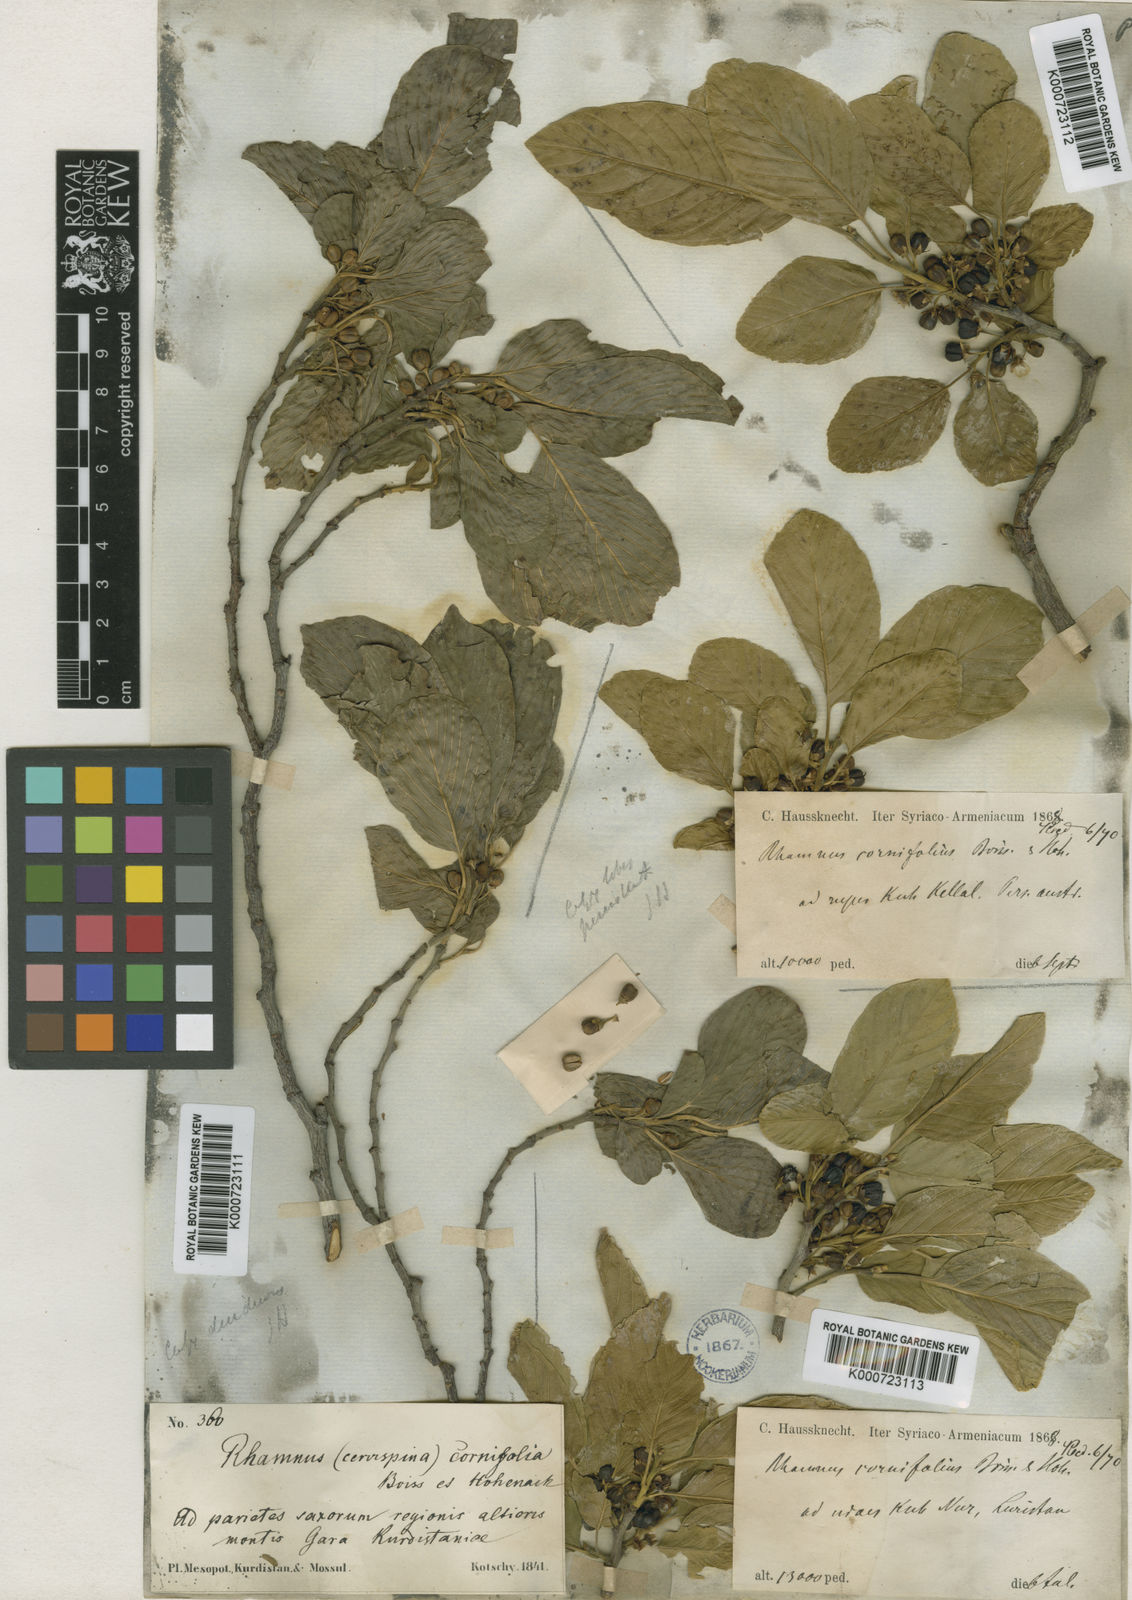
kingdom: Plantae
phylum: Tracheophyta
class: Magnoliopsida
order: Rosales
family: Rhamnaceae
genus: Atadinus
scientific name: Atadinus cornifolius
